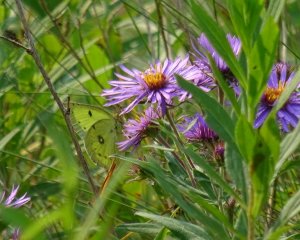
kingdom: Animalia
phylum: Arthropoda
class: Insecta
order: Lepidoptera
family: Pieridae
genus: Colias
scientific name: Colias philodice
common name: Clouded Sulphur
